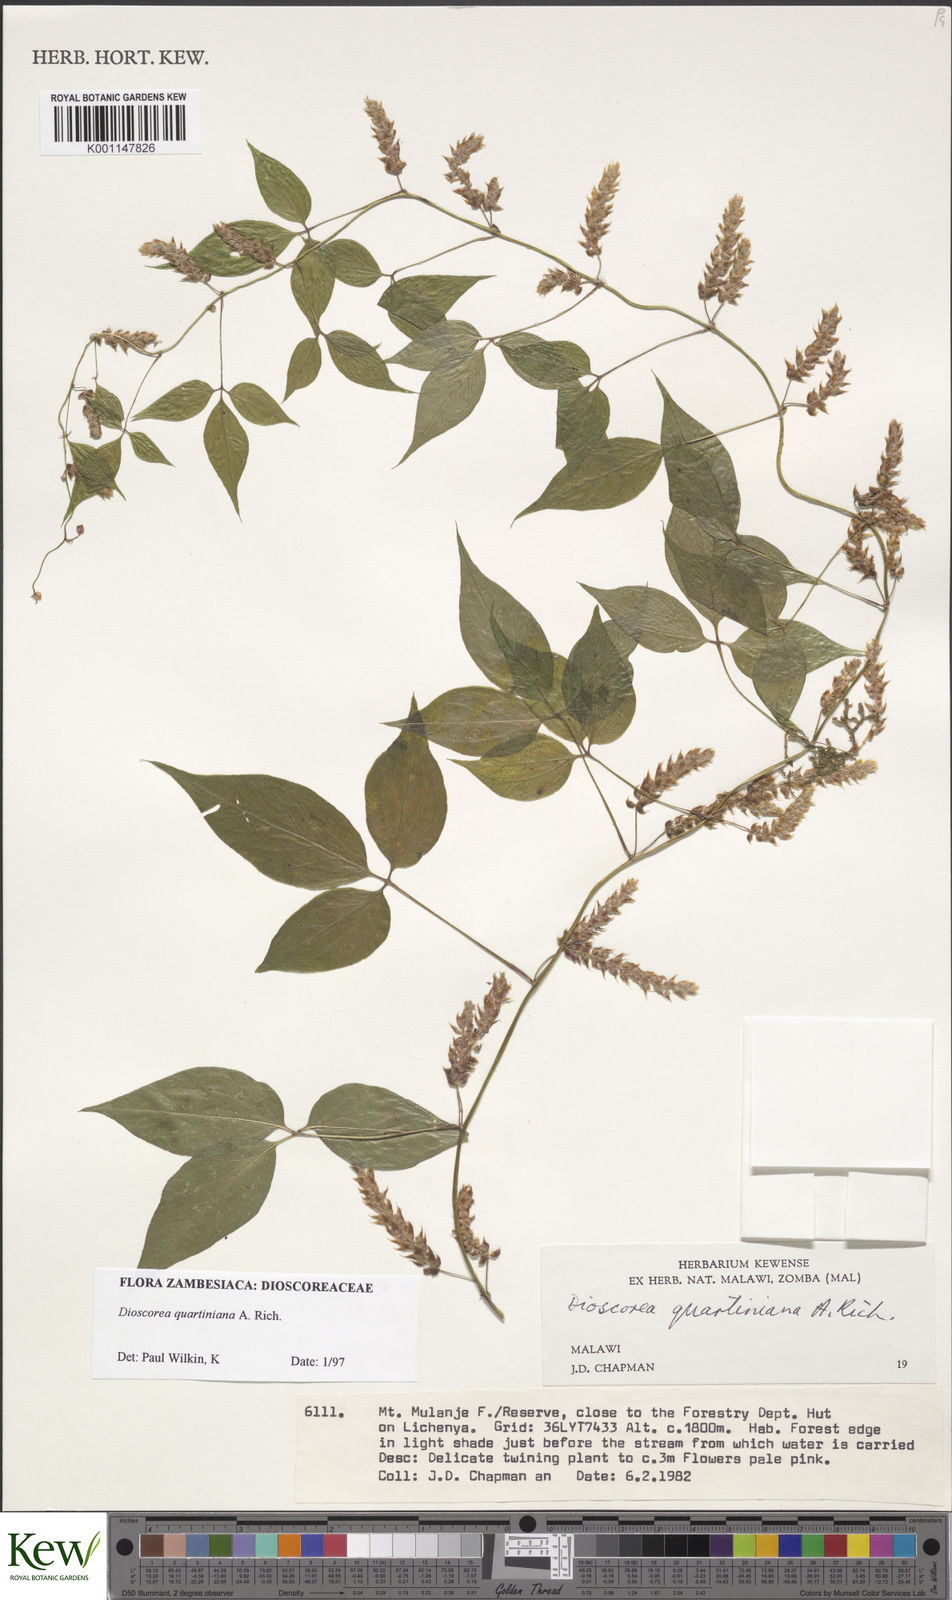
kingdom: Plantae
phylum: Tracheophyta
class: Liliopsida
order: Dioscoreales
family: Dioscoreaceae
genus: Dioscorea
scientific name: Dioscorea quartiniana
